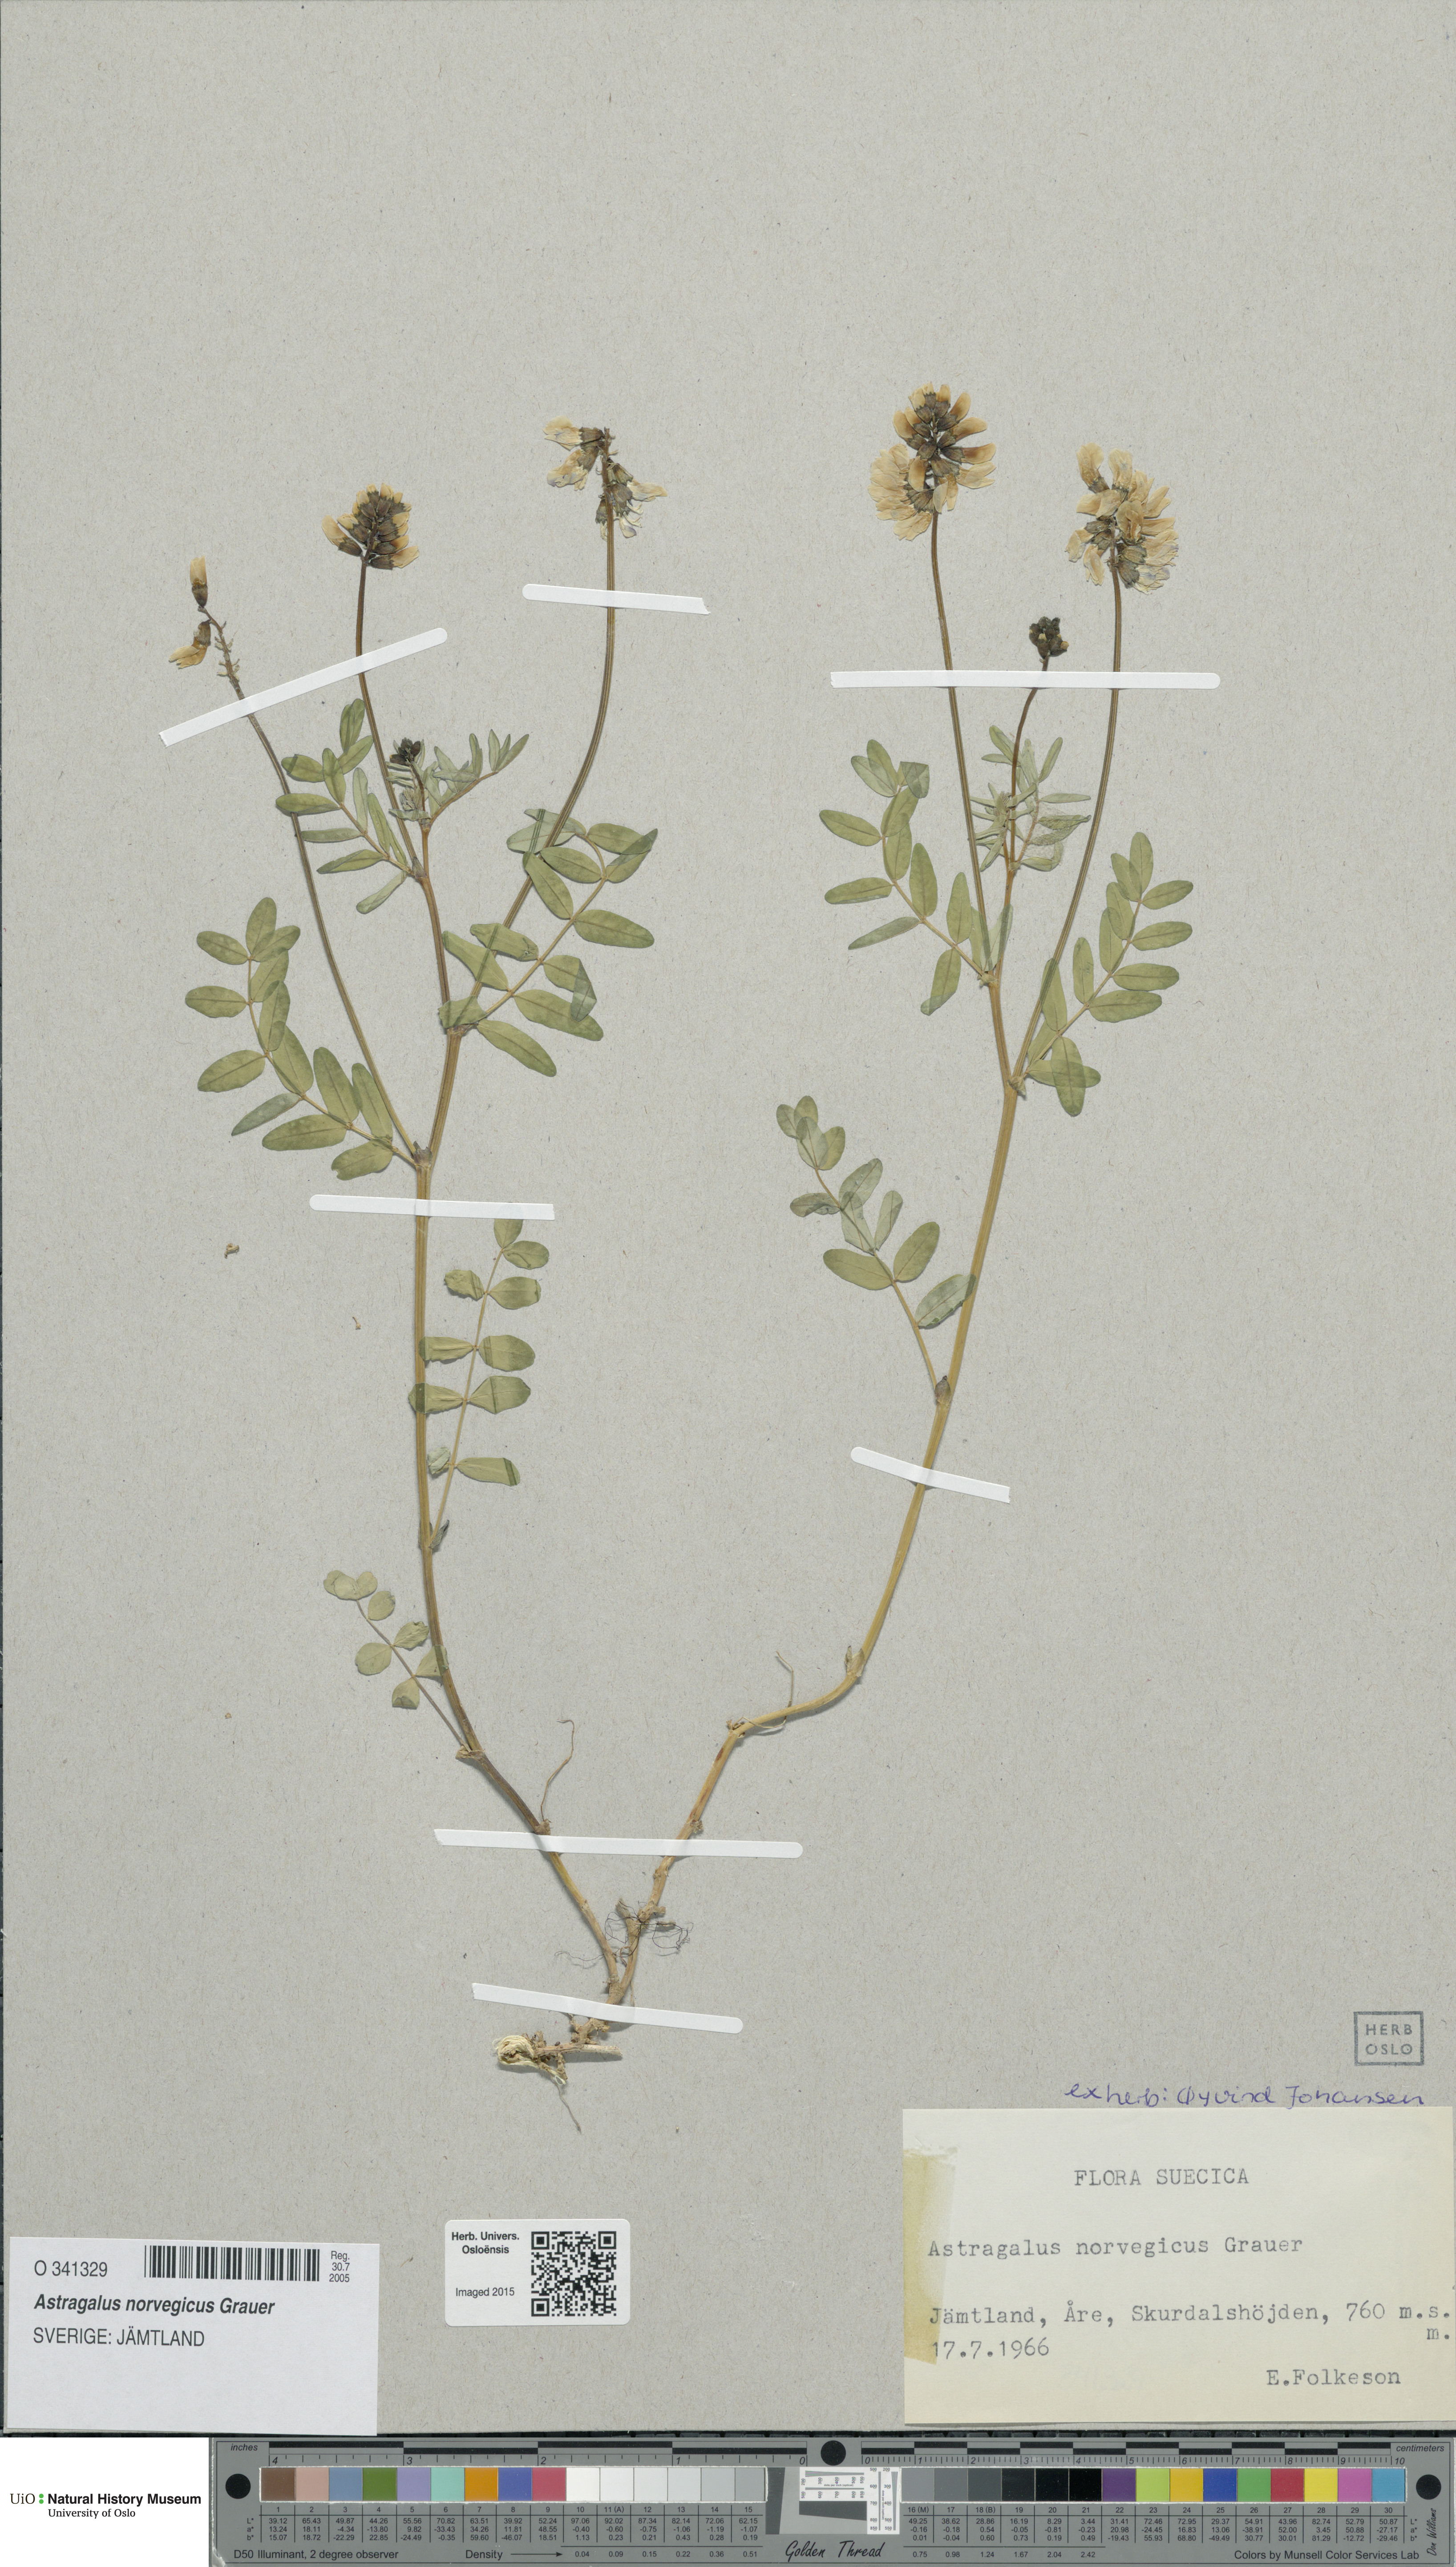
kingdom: Plantae
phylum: Tracheophyta
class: Magnoliopsida
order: Fabales
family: Fabaceae
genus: Astragalus
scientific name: Astragalus norvegicus
